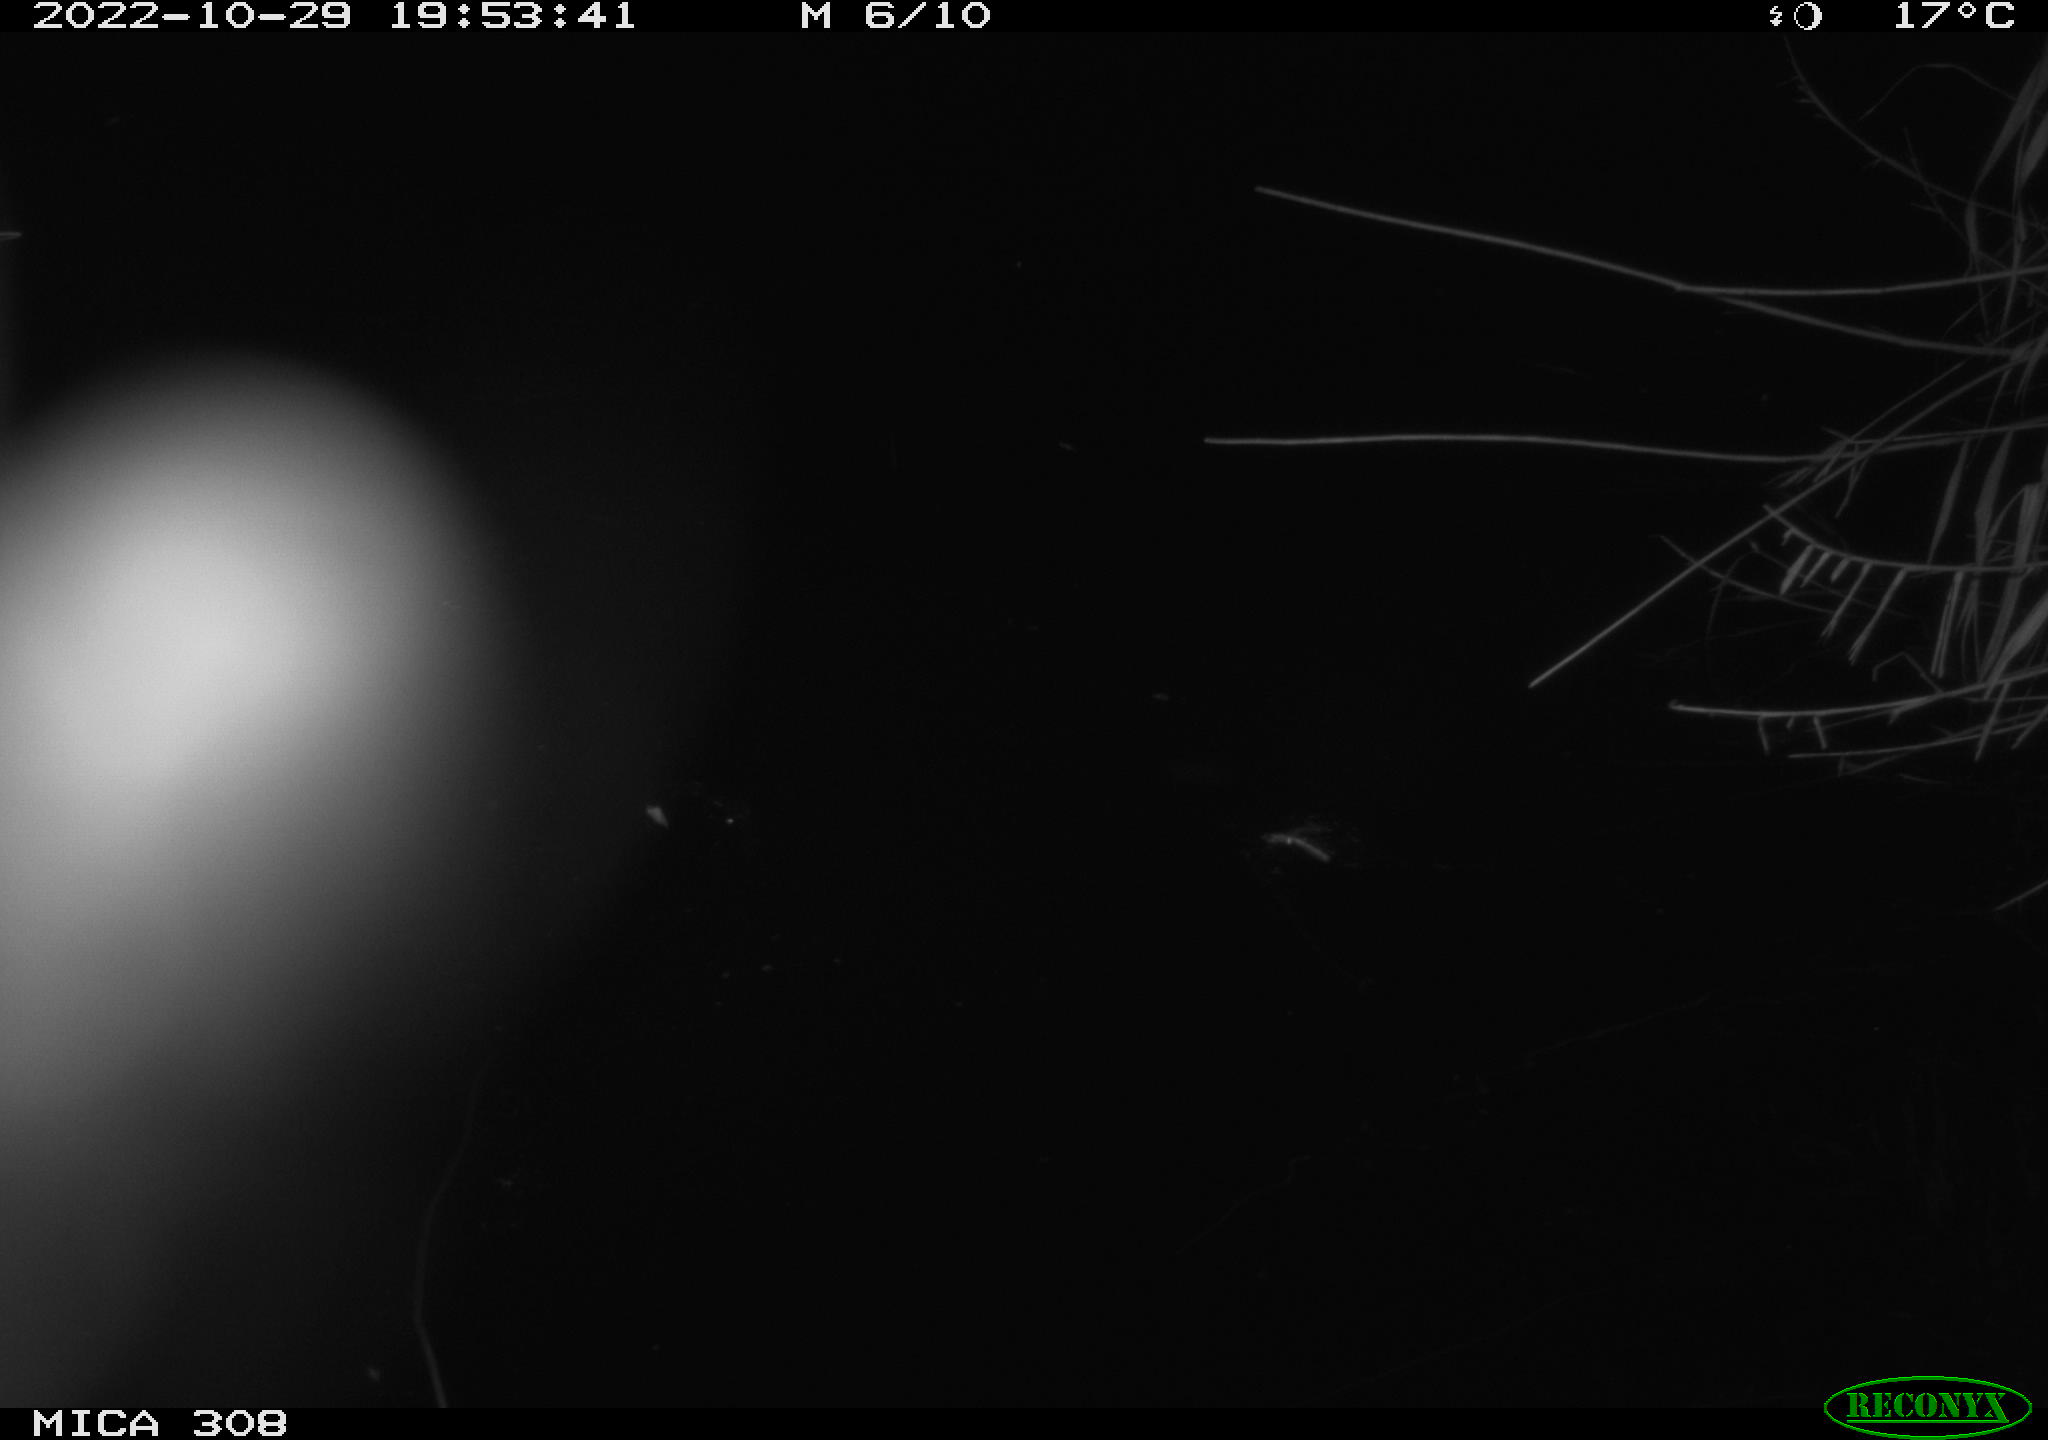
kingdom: Animalia
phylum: Chordata
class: Mammalia
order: Rodentia
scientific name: Rodentia
